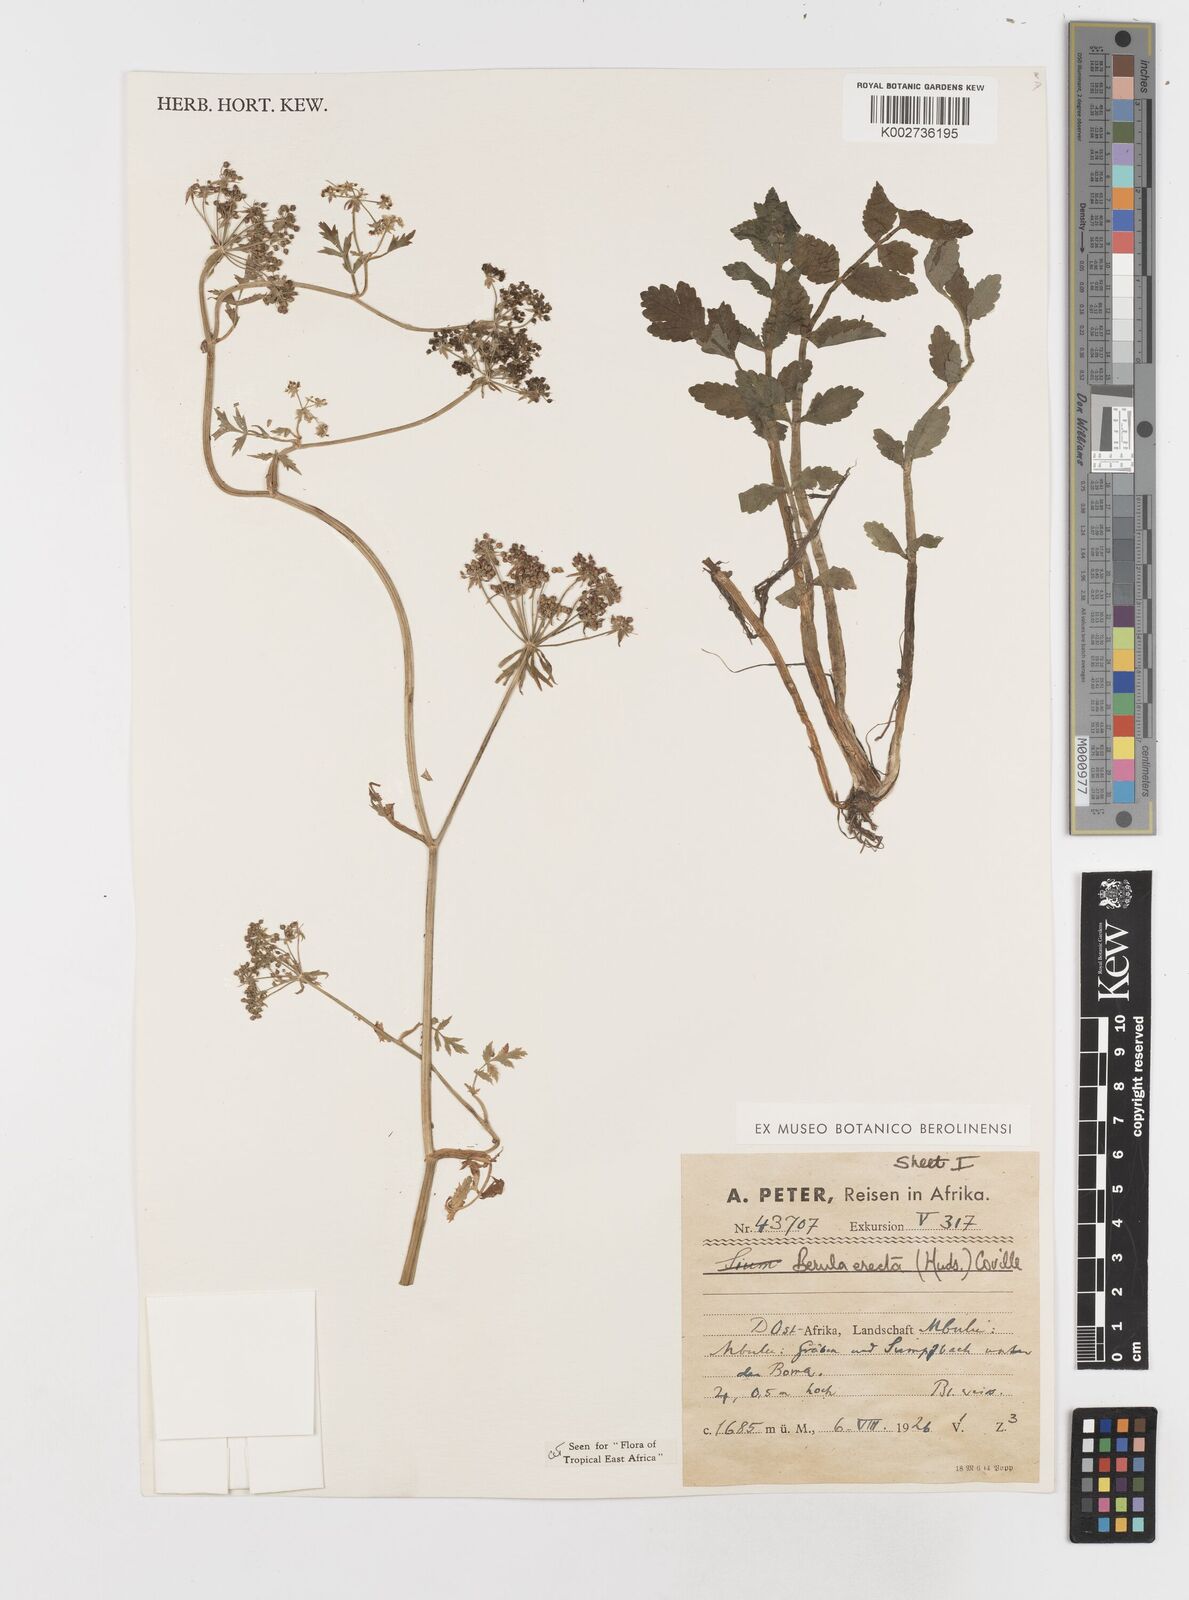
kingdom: Plantae
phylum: Tracheophyta
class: Magnoliopsida
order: Apiales
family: Apiaceae
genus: Berula
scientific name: Berula erecta
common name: Lesser water-parsnip
